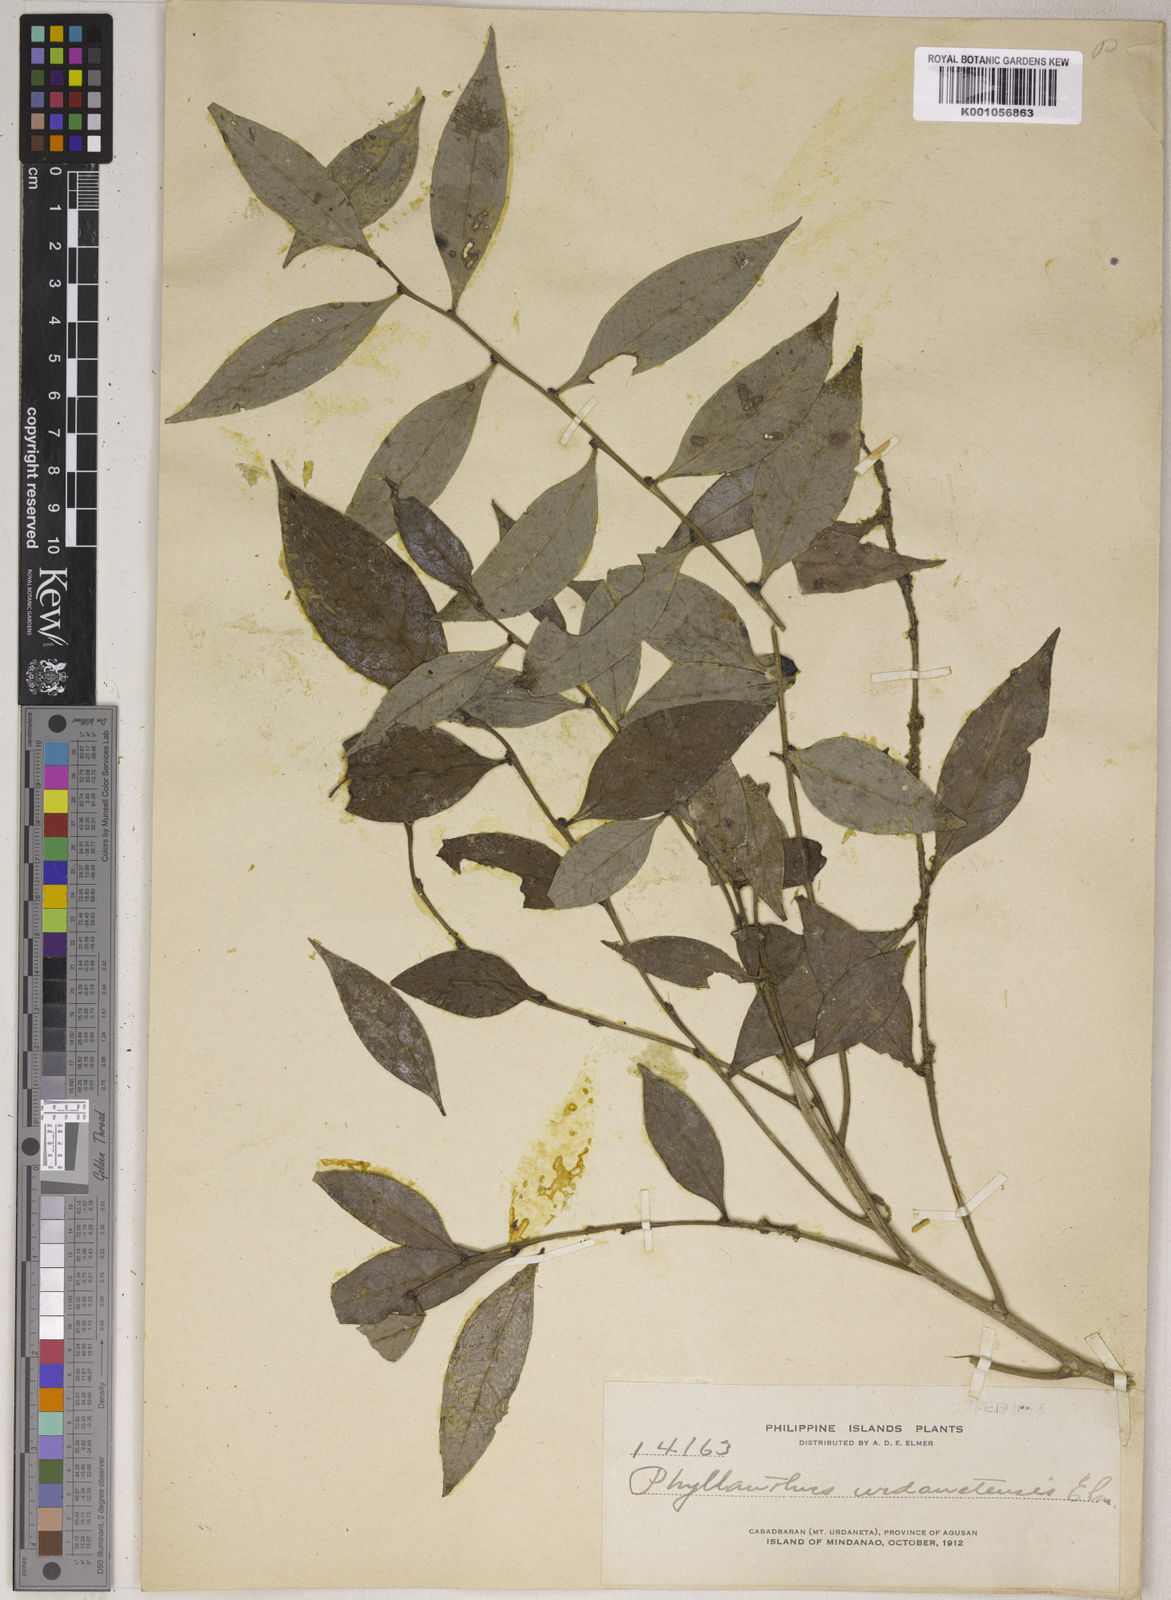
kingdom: Plantae
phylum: Tracheophyta
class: Magnoliopsida
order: Malpighiales
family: Phyllanthaceae
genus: Phyllanthus
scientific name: Phyllanthus securinegoides
